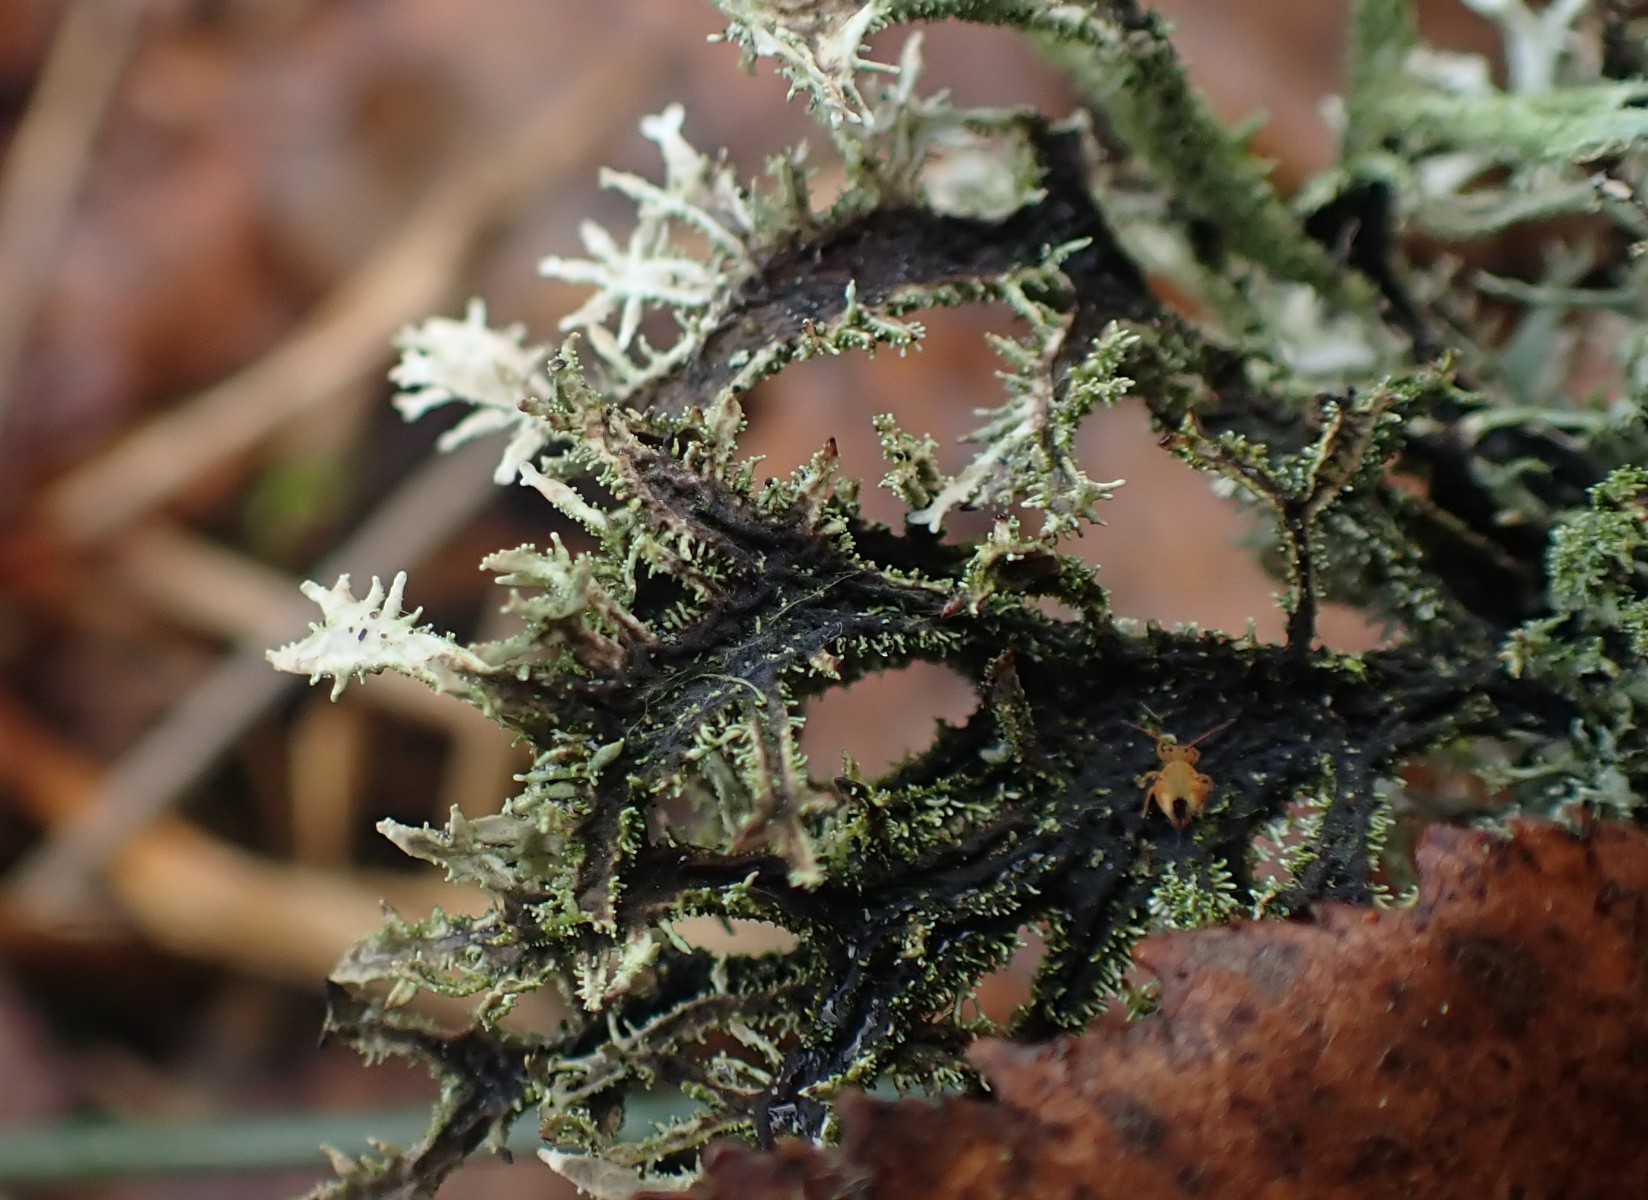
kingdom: Fungi
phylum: Ascomycota
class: Lecanoromycetes
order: Lecanorales
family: Parmeliaceae
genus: Pseudevernia
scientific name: Pseudevernia furfuracea
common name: grå fyrrelav
